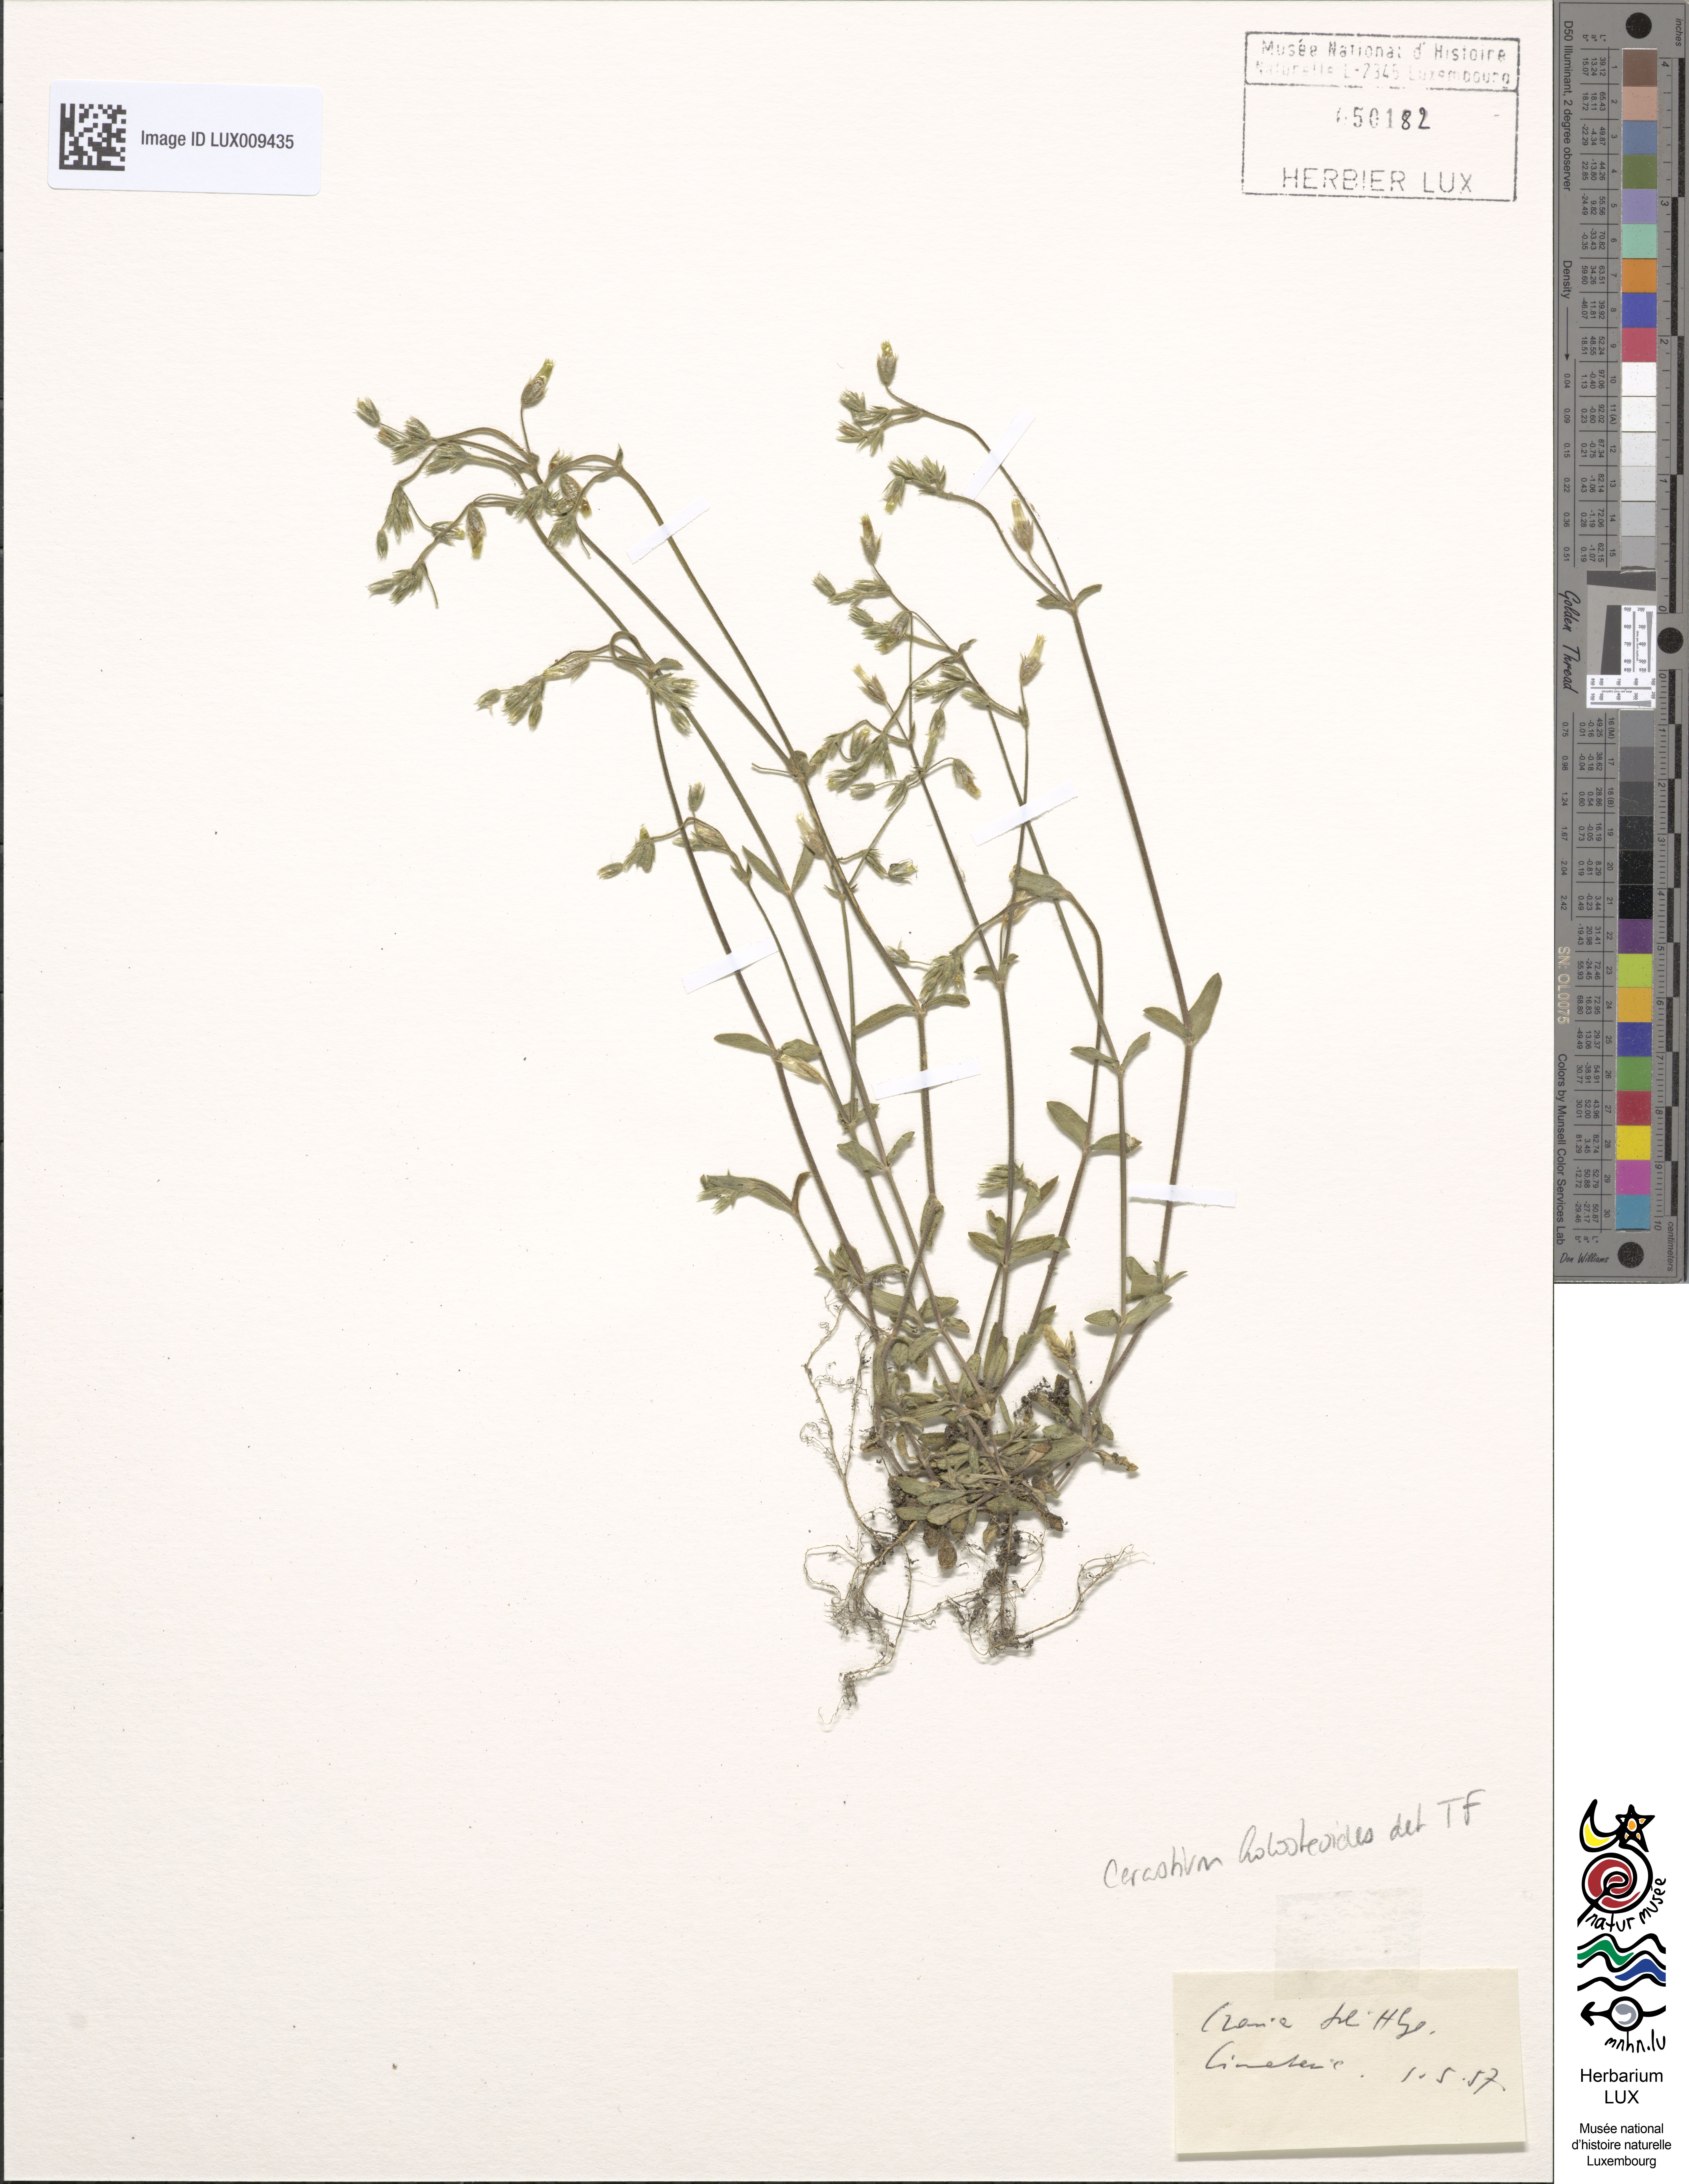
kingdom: Plantae
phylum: Tracheophyta
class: Magnoliopsida
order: Caryophyllales
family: Caryophyllaceae
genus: Cerastium
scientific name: Cerastium holosteoides
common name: Big chickweed
